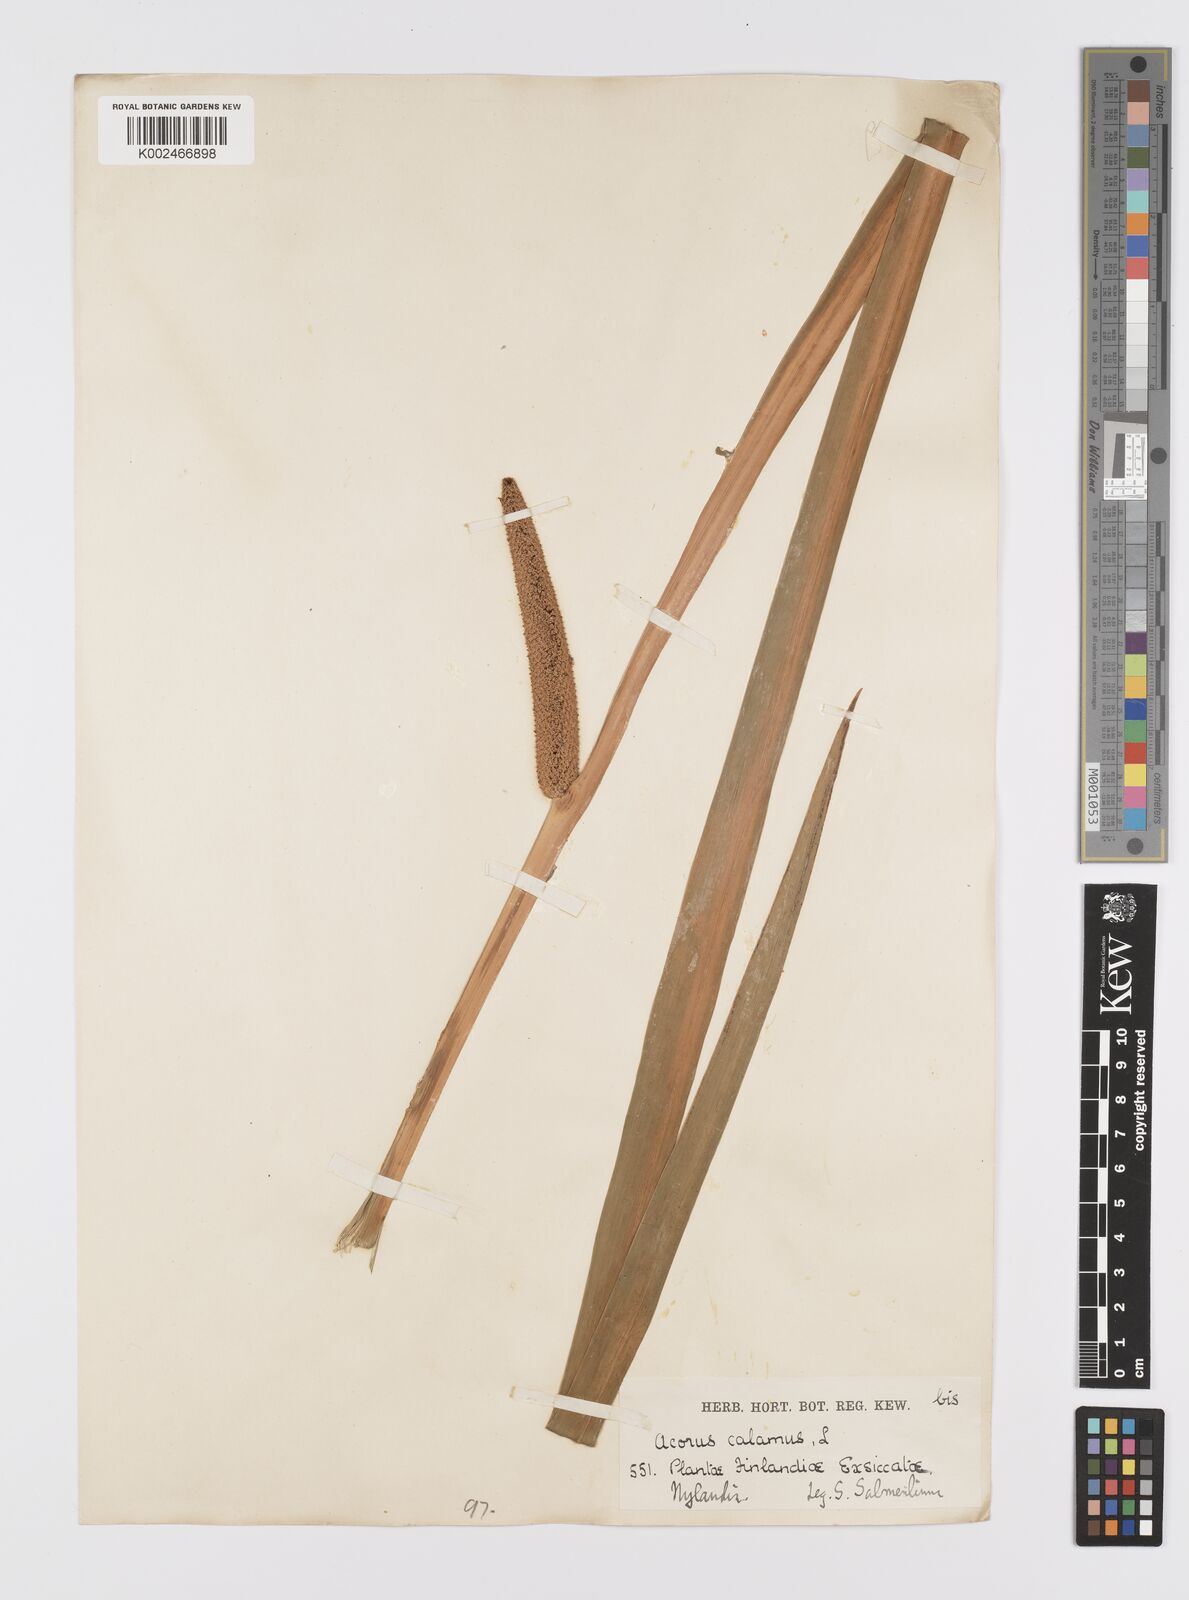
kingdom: Plantae
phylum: Tracheophyta
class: Liliopsida
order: Acorales
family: Acoraceae
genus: Acorus
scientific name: Acorus calamus
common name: Sweet-flag
